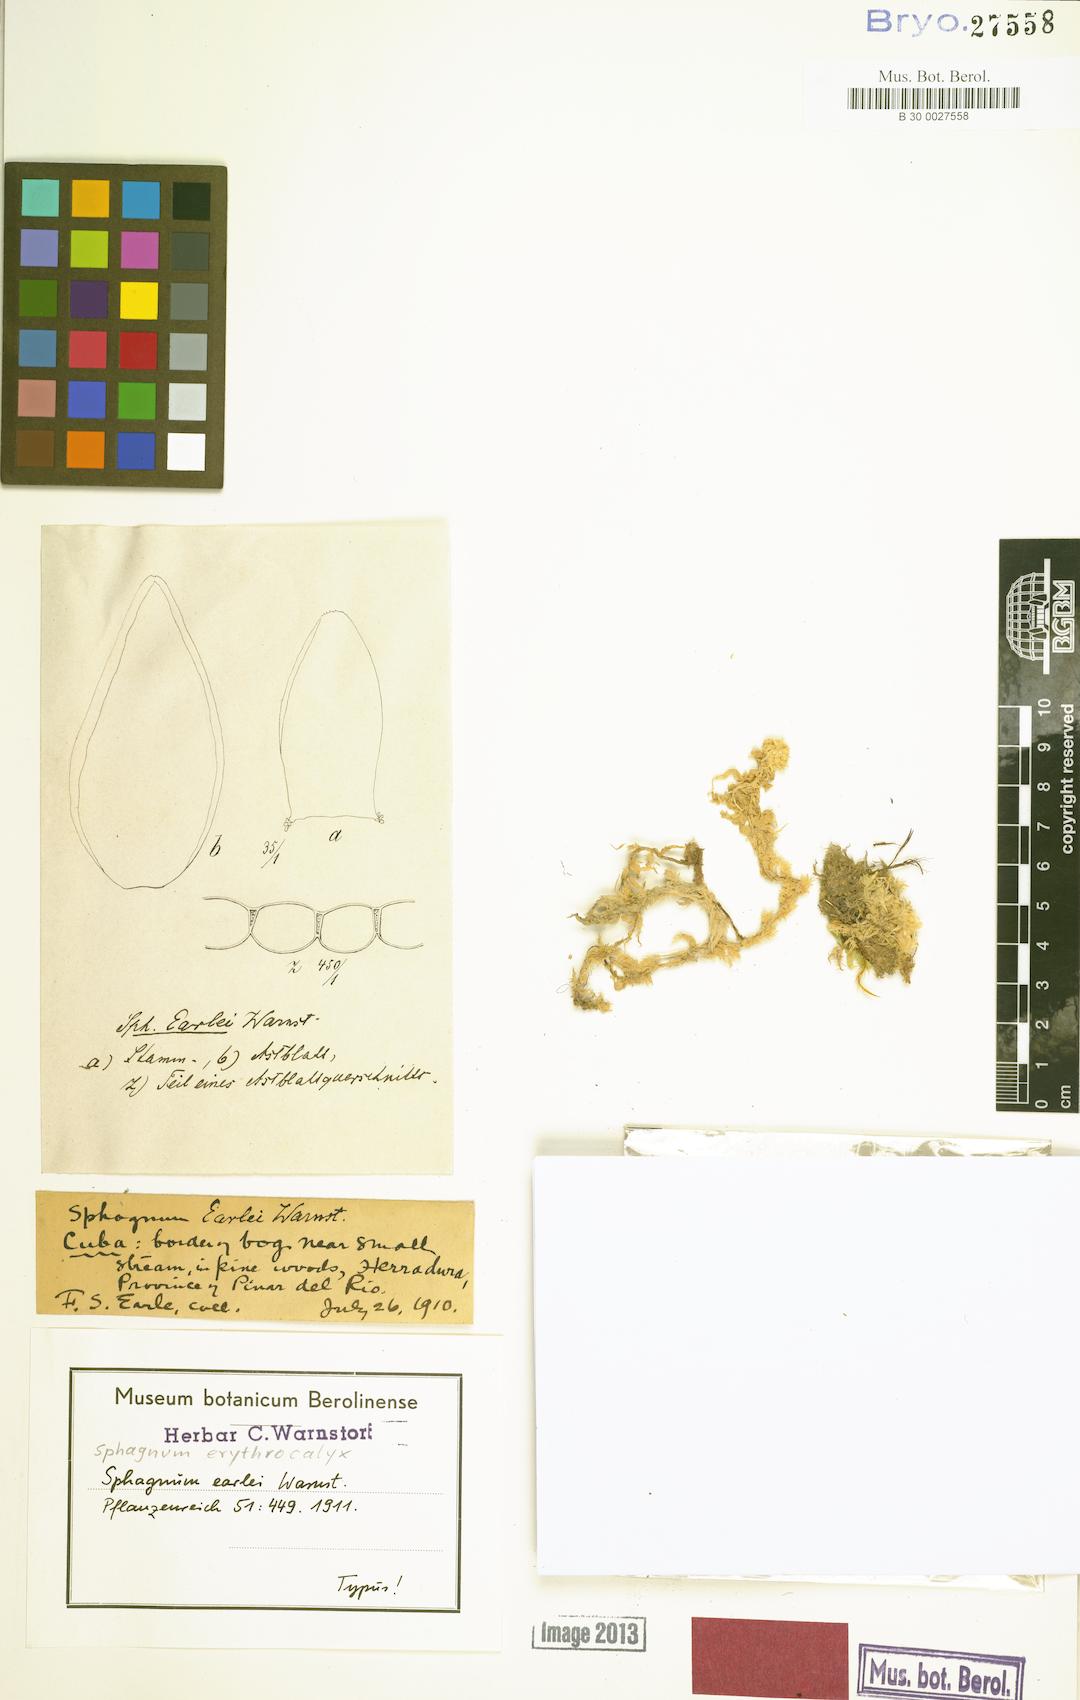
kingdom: Plantae
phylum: Bryophyta
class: Sphagnopsida
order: Sphagnales
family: Sphagnaceae
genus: Sphagnum
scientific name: Sphagnum perichaetiale
